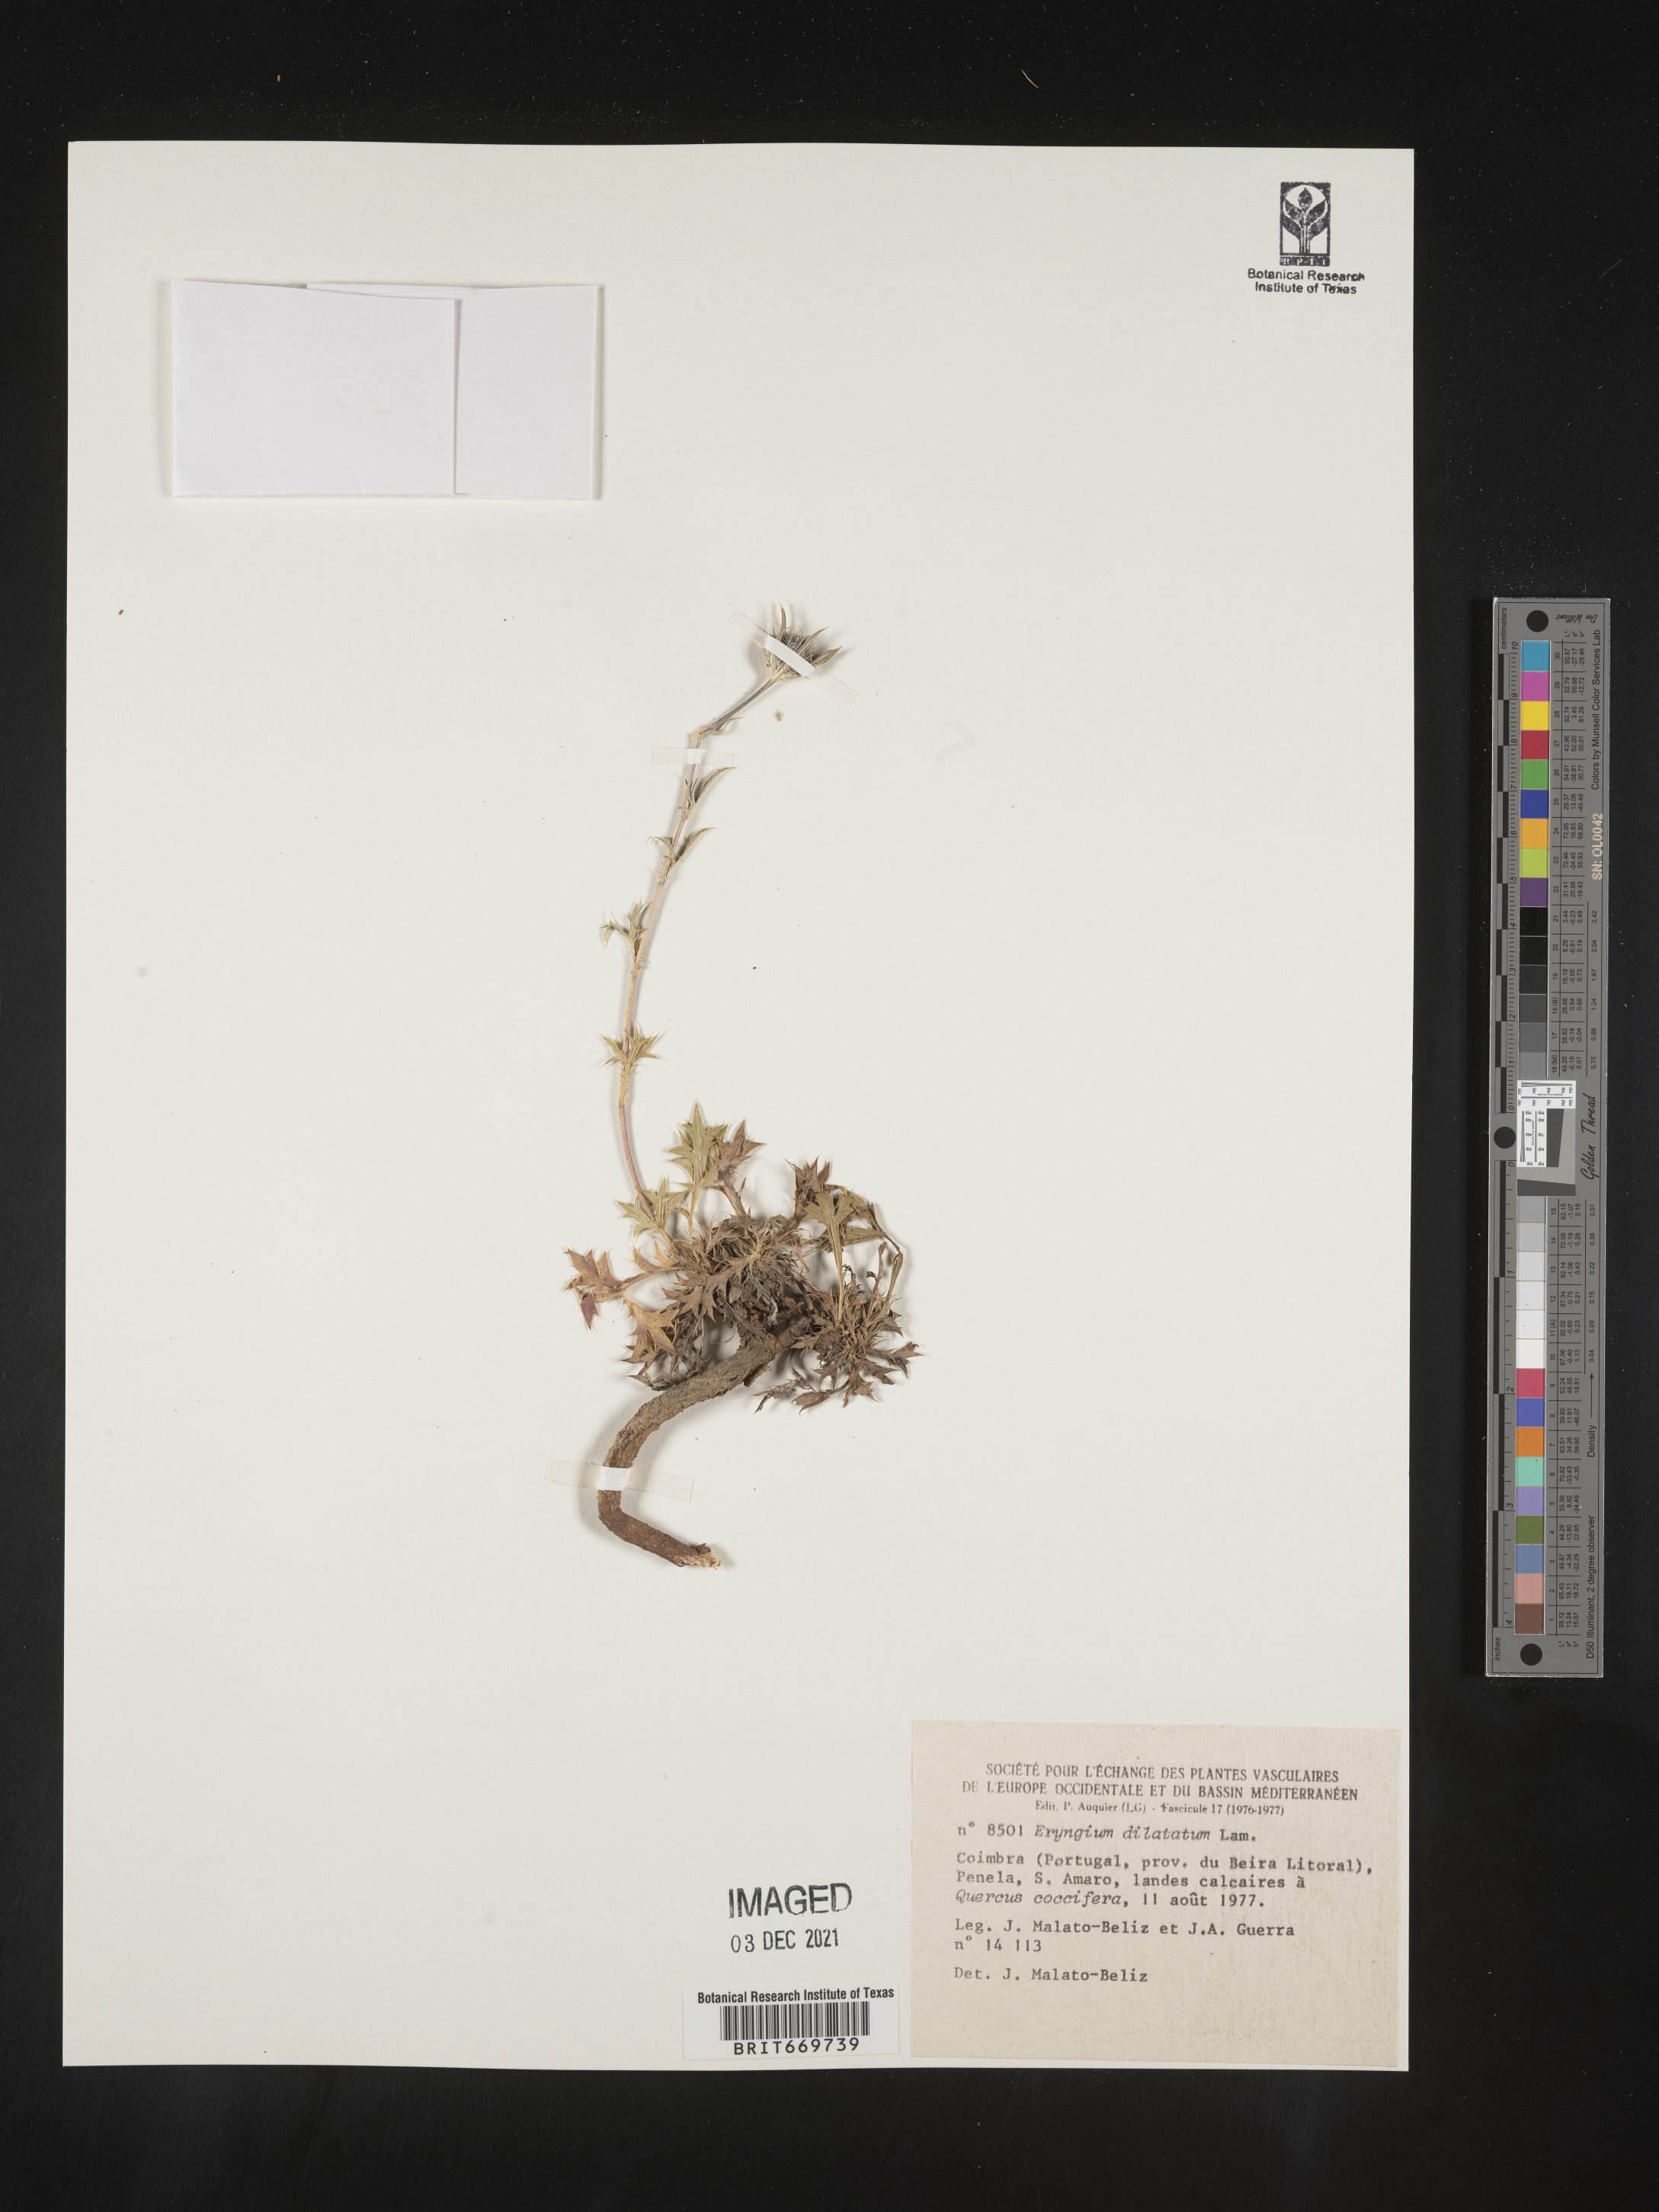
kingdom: Plantae
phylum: Tracheophyta
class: Magnoliopsida
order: Apiales
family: Apiaceae
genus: Eryngium
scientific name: Eryngium
